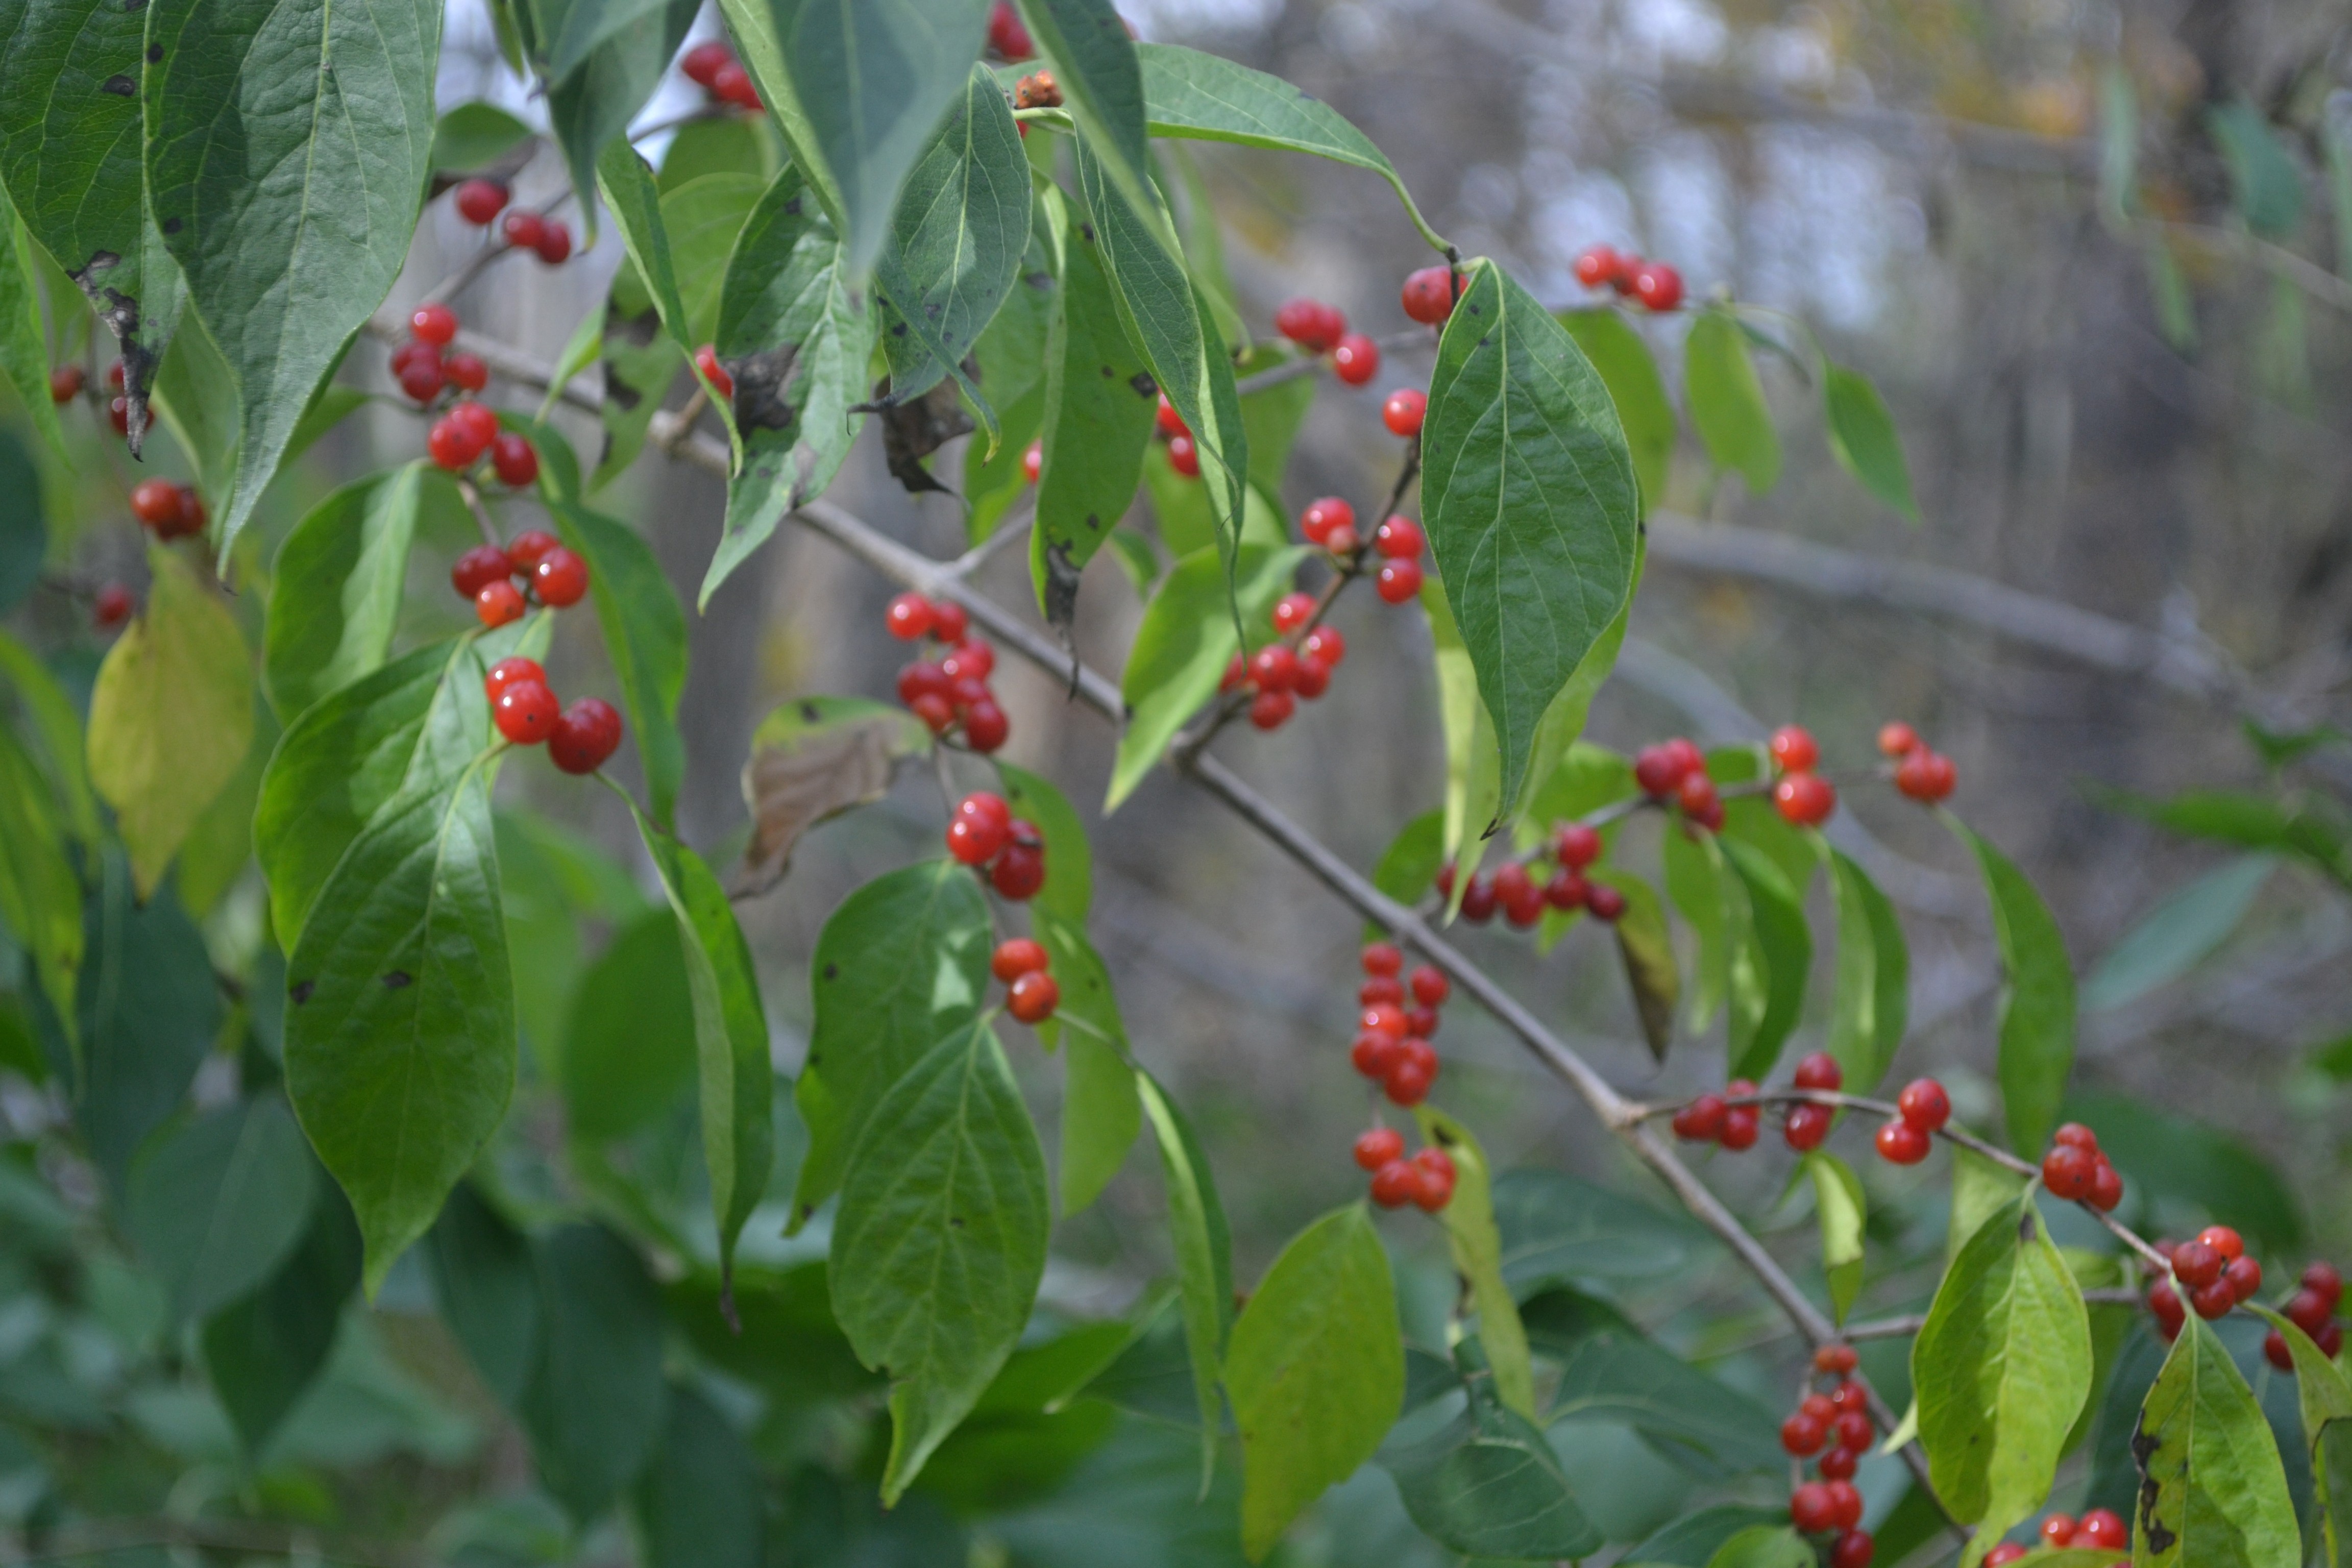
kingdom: Plantae
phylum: Tracheophyta
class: Magnoliopsida
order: Dipsacales
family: Caprifoliaceae
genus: Lonicera
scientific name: Lonicera maackii
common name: Amur Honeysuckle
